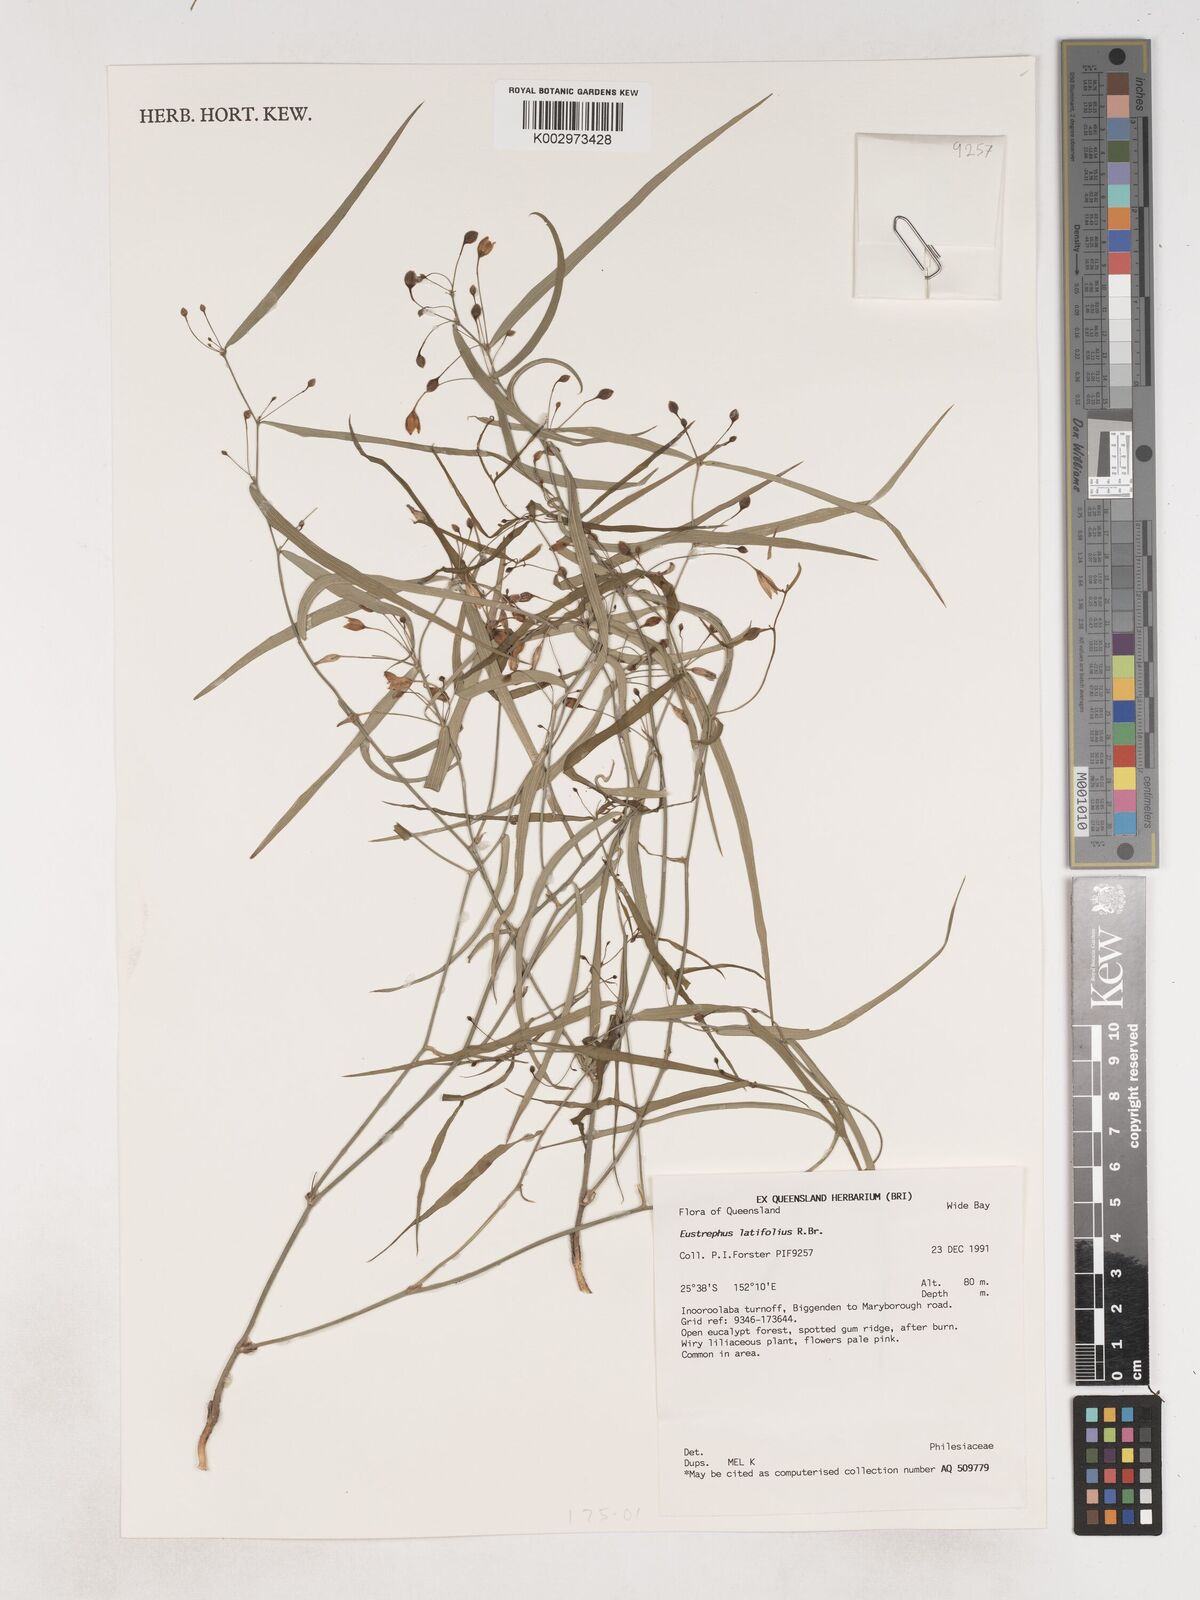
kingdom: Plantae
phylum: Tracheophyta
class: Liliopsida
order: Asparagales
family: Asparagaceae
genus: Eustrephus
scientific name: Eustrephus latifolius
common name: Orangevine
